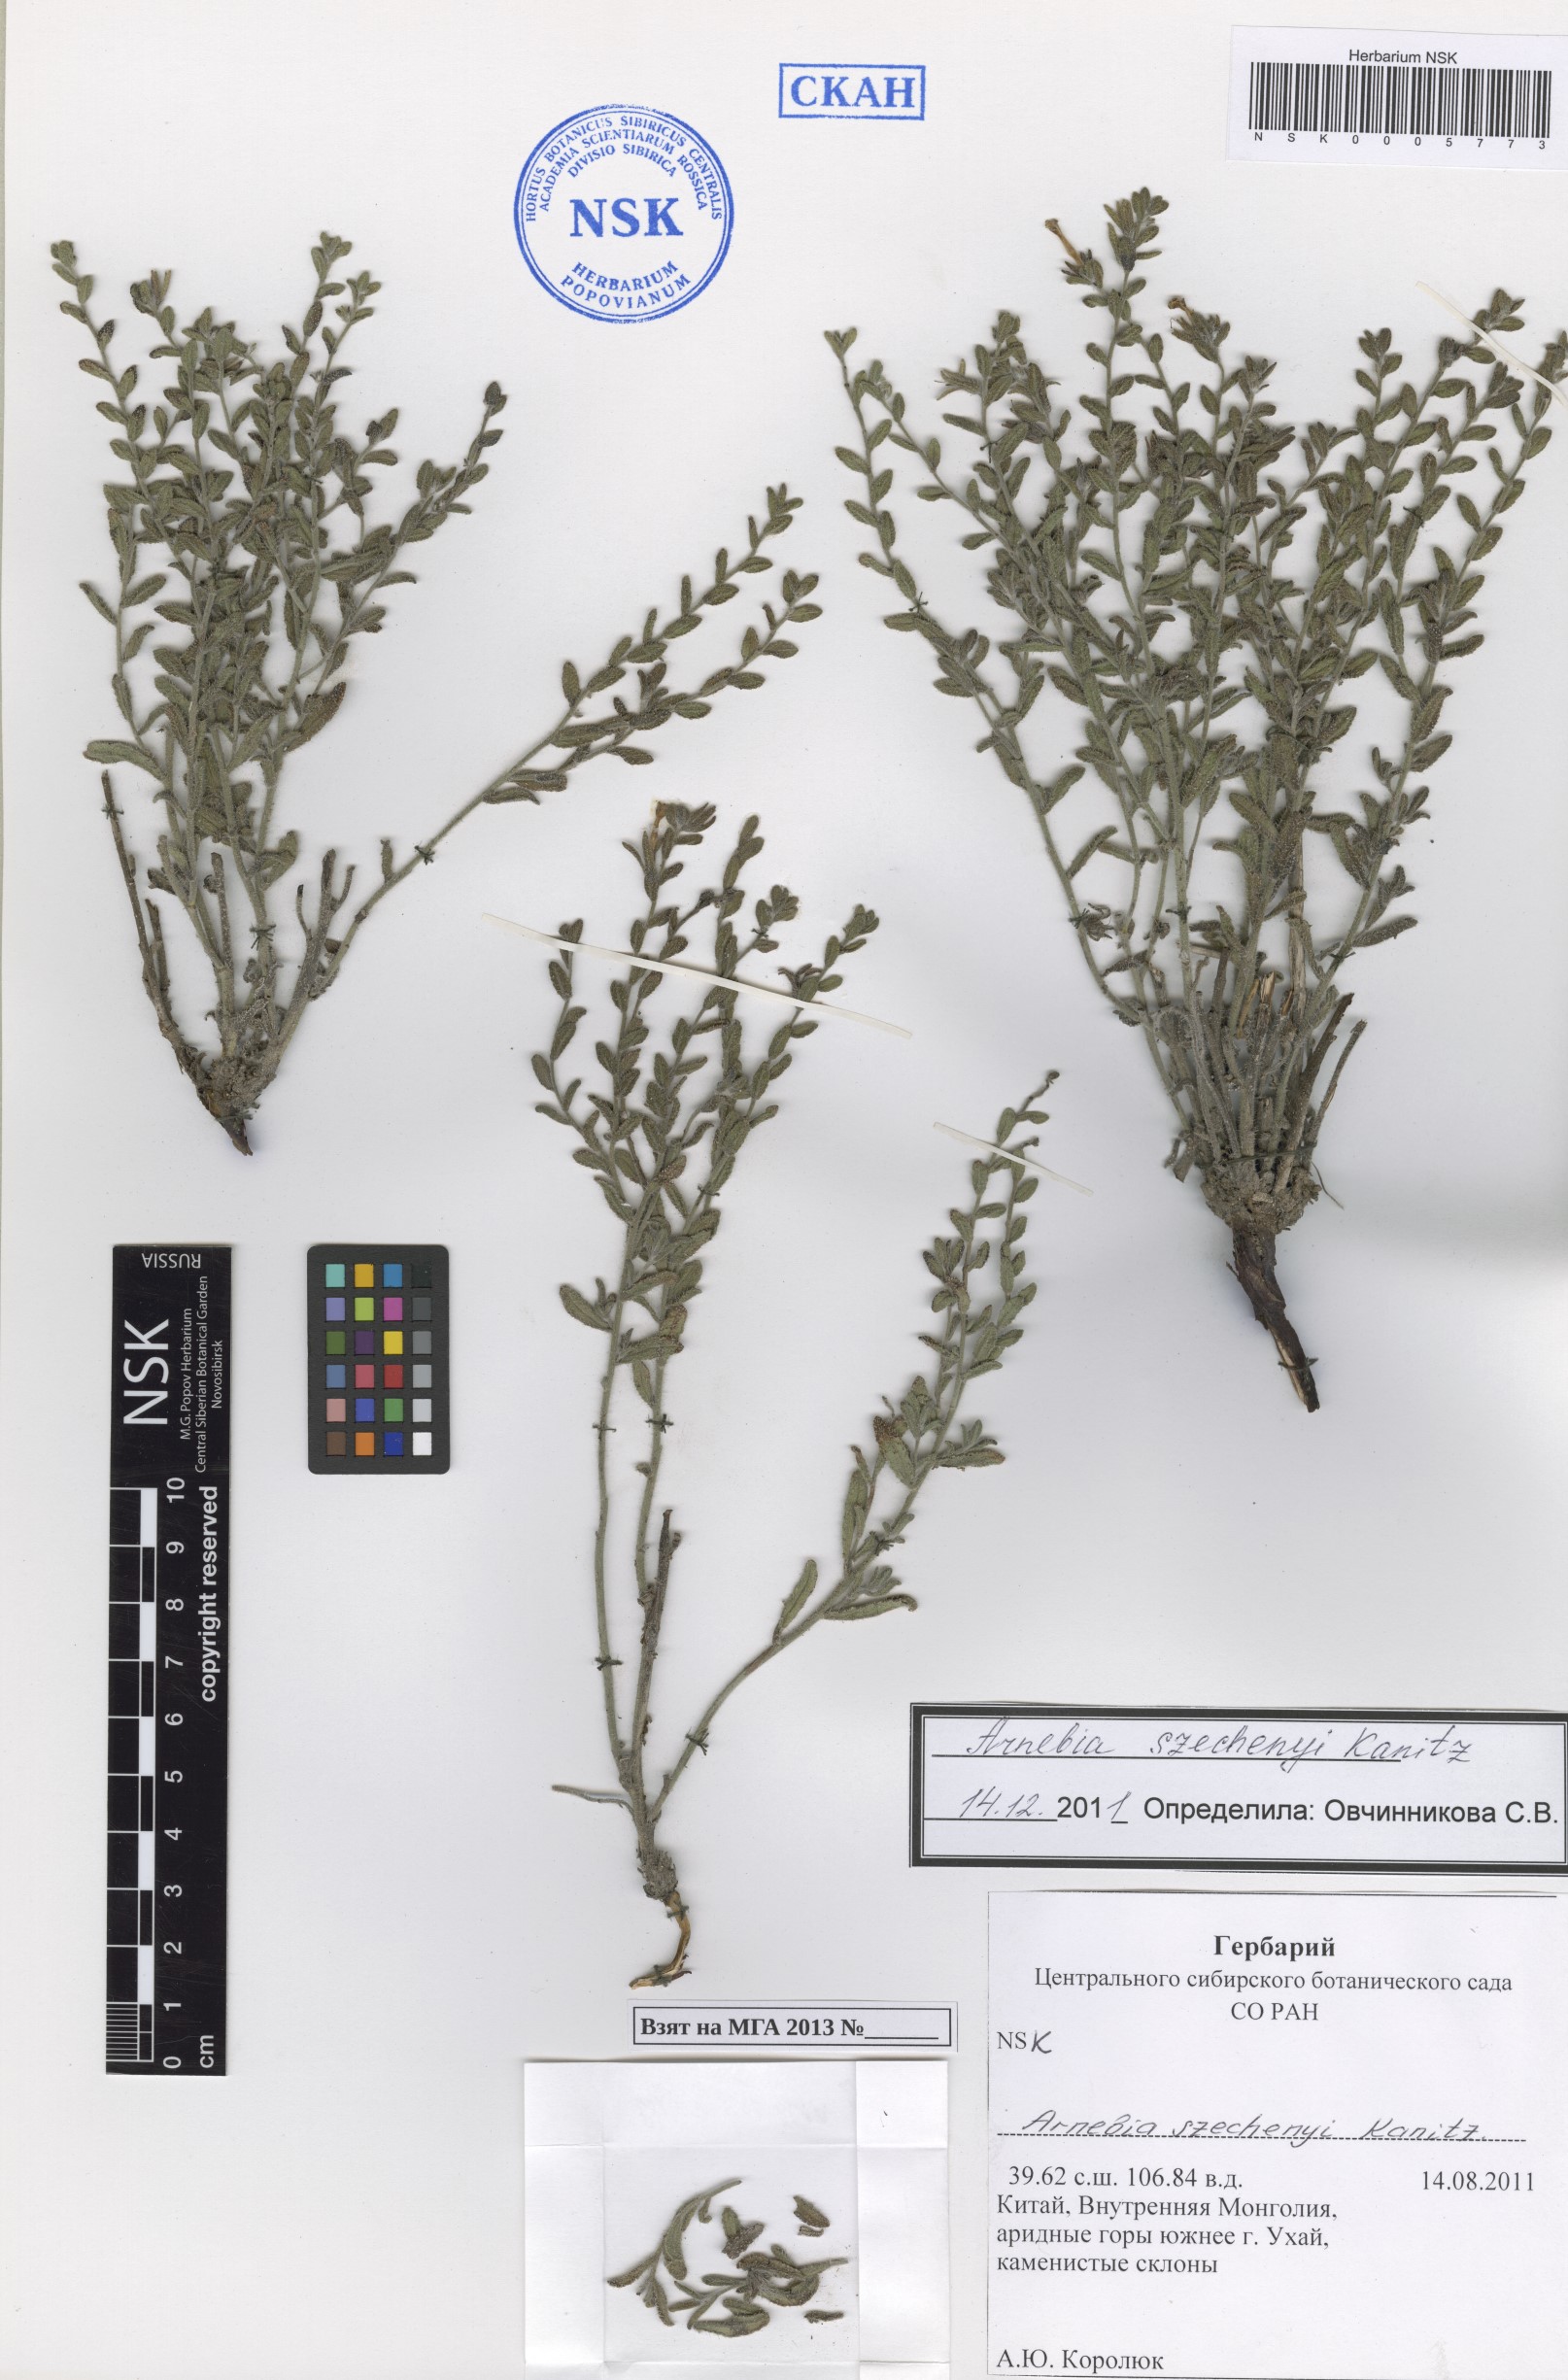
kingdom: Plantae
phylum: Tracheophyta
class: Magnoliopsida
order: Boraginales
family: Boraginaceae
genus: Arnebia
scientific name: Arnebia szechenyi
